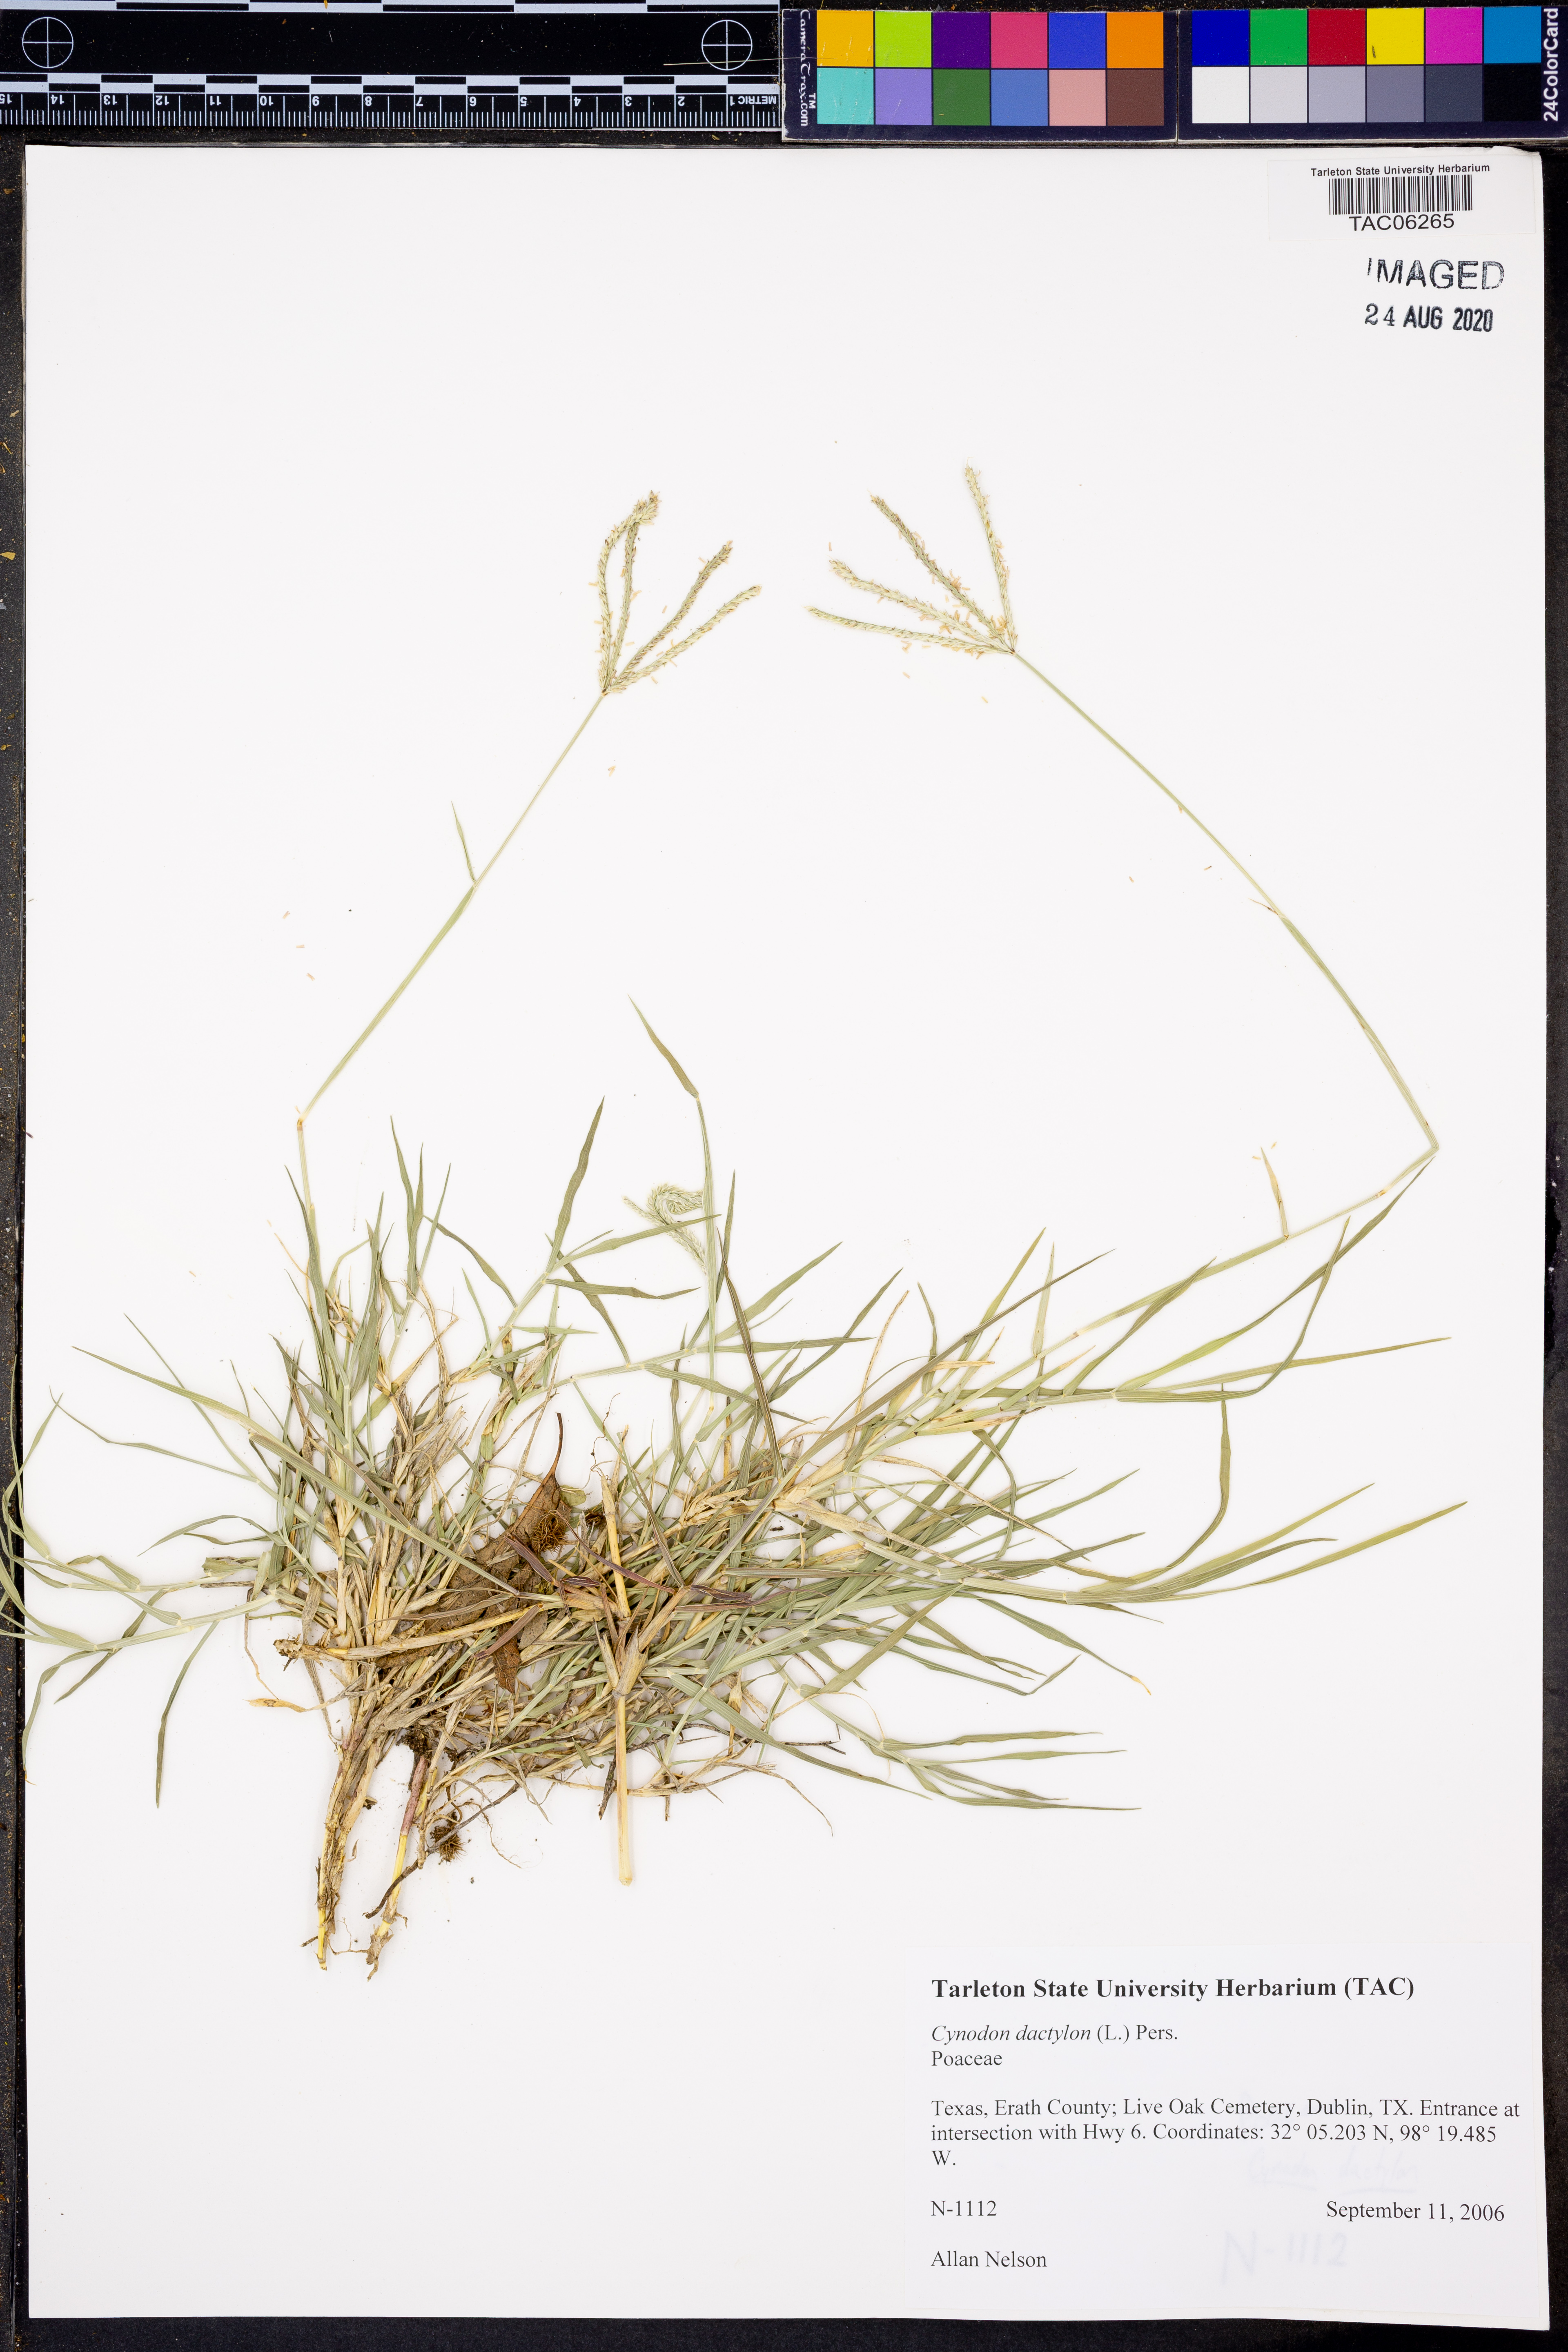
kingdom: Plantae
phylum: Tracheophyta
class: Liliopsida
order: Poales
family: Poaceae
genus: Cynodon
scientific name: Cynodon dactylon
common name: Bermuda grass
